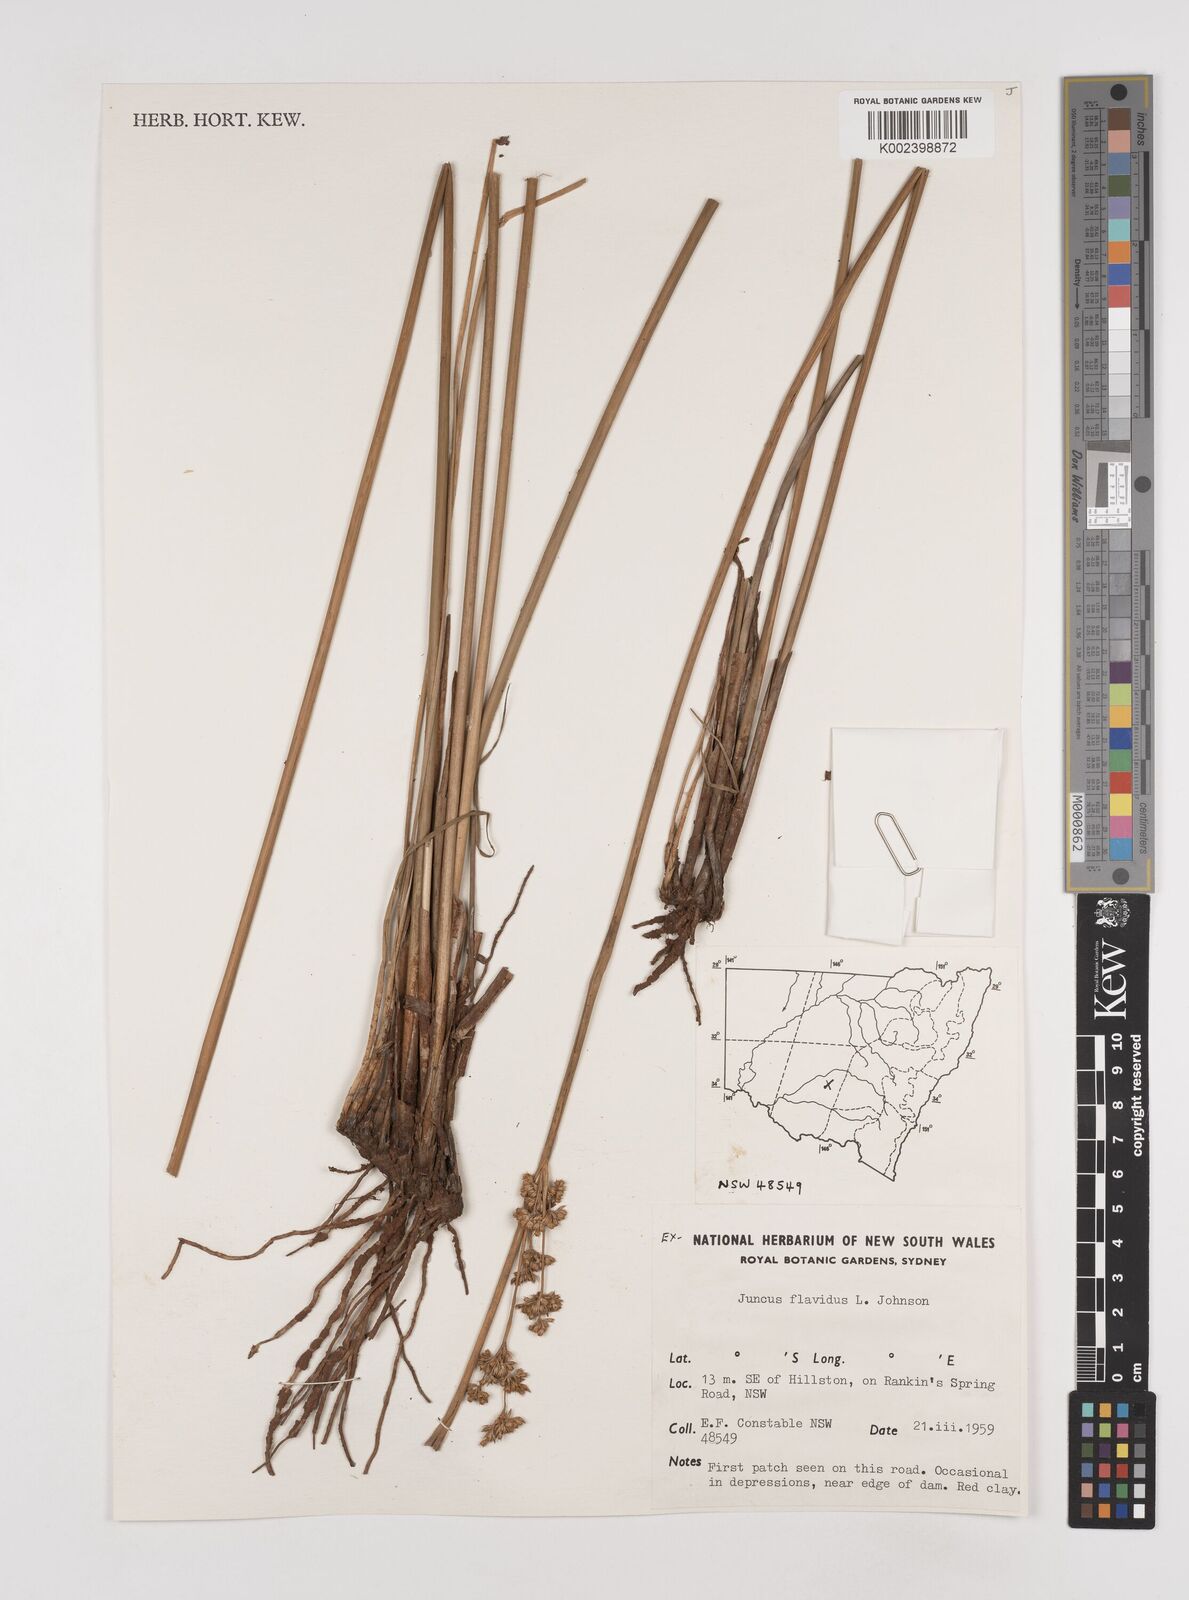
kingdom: Plantae
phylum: Tracheophyta
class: Liliopsida
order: Poales
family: Juncaceae
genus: Juncus
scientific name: Juncus flavidus
